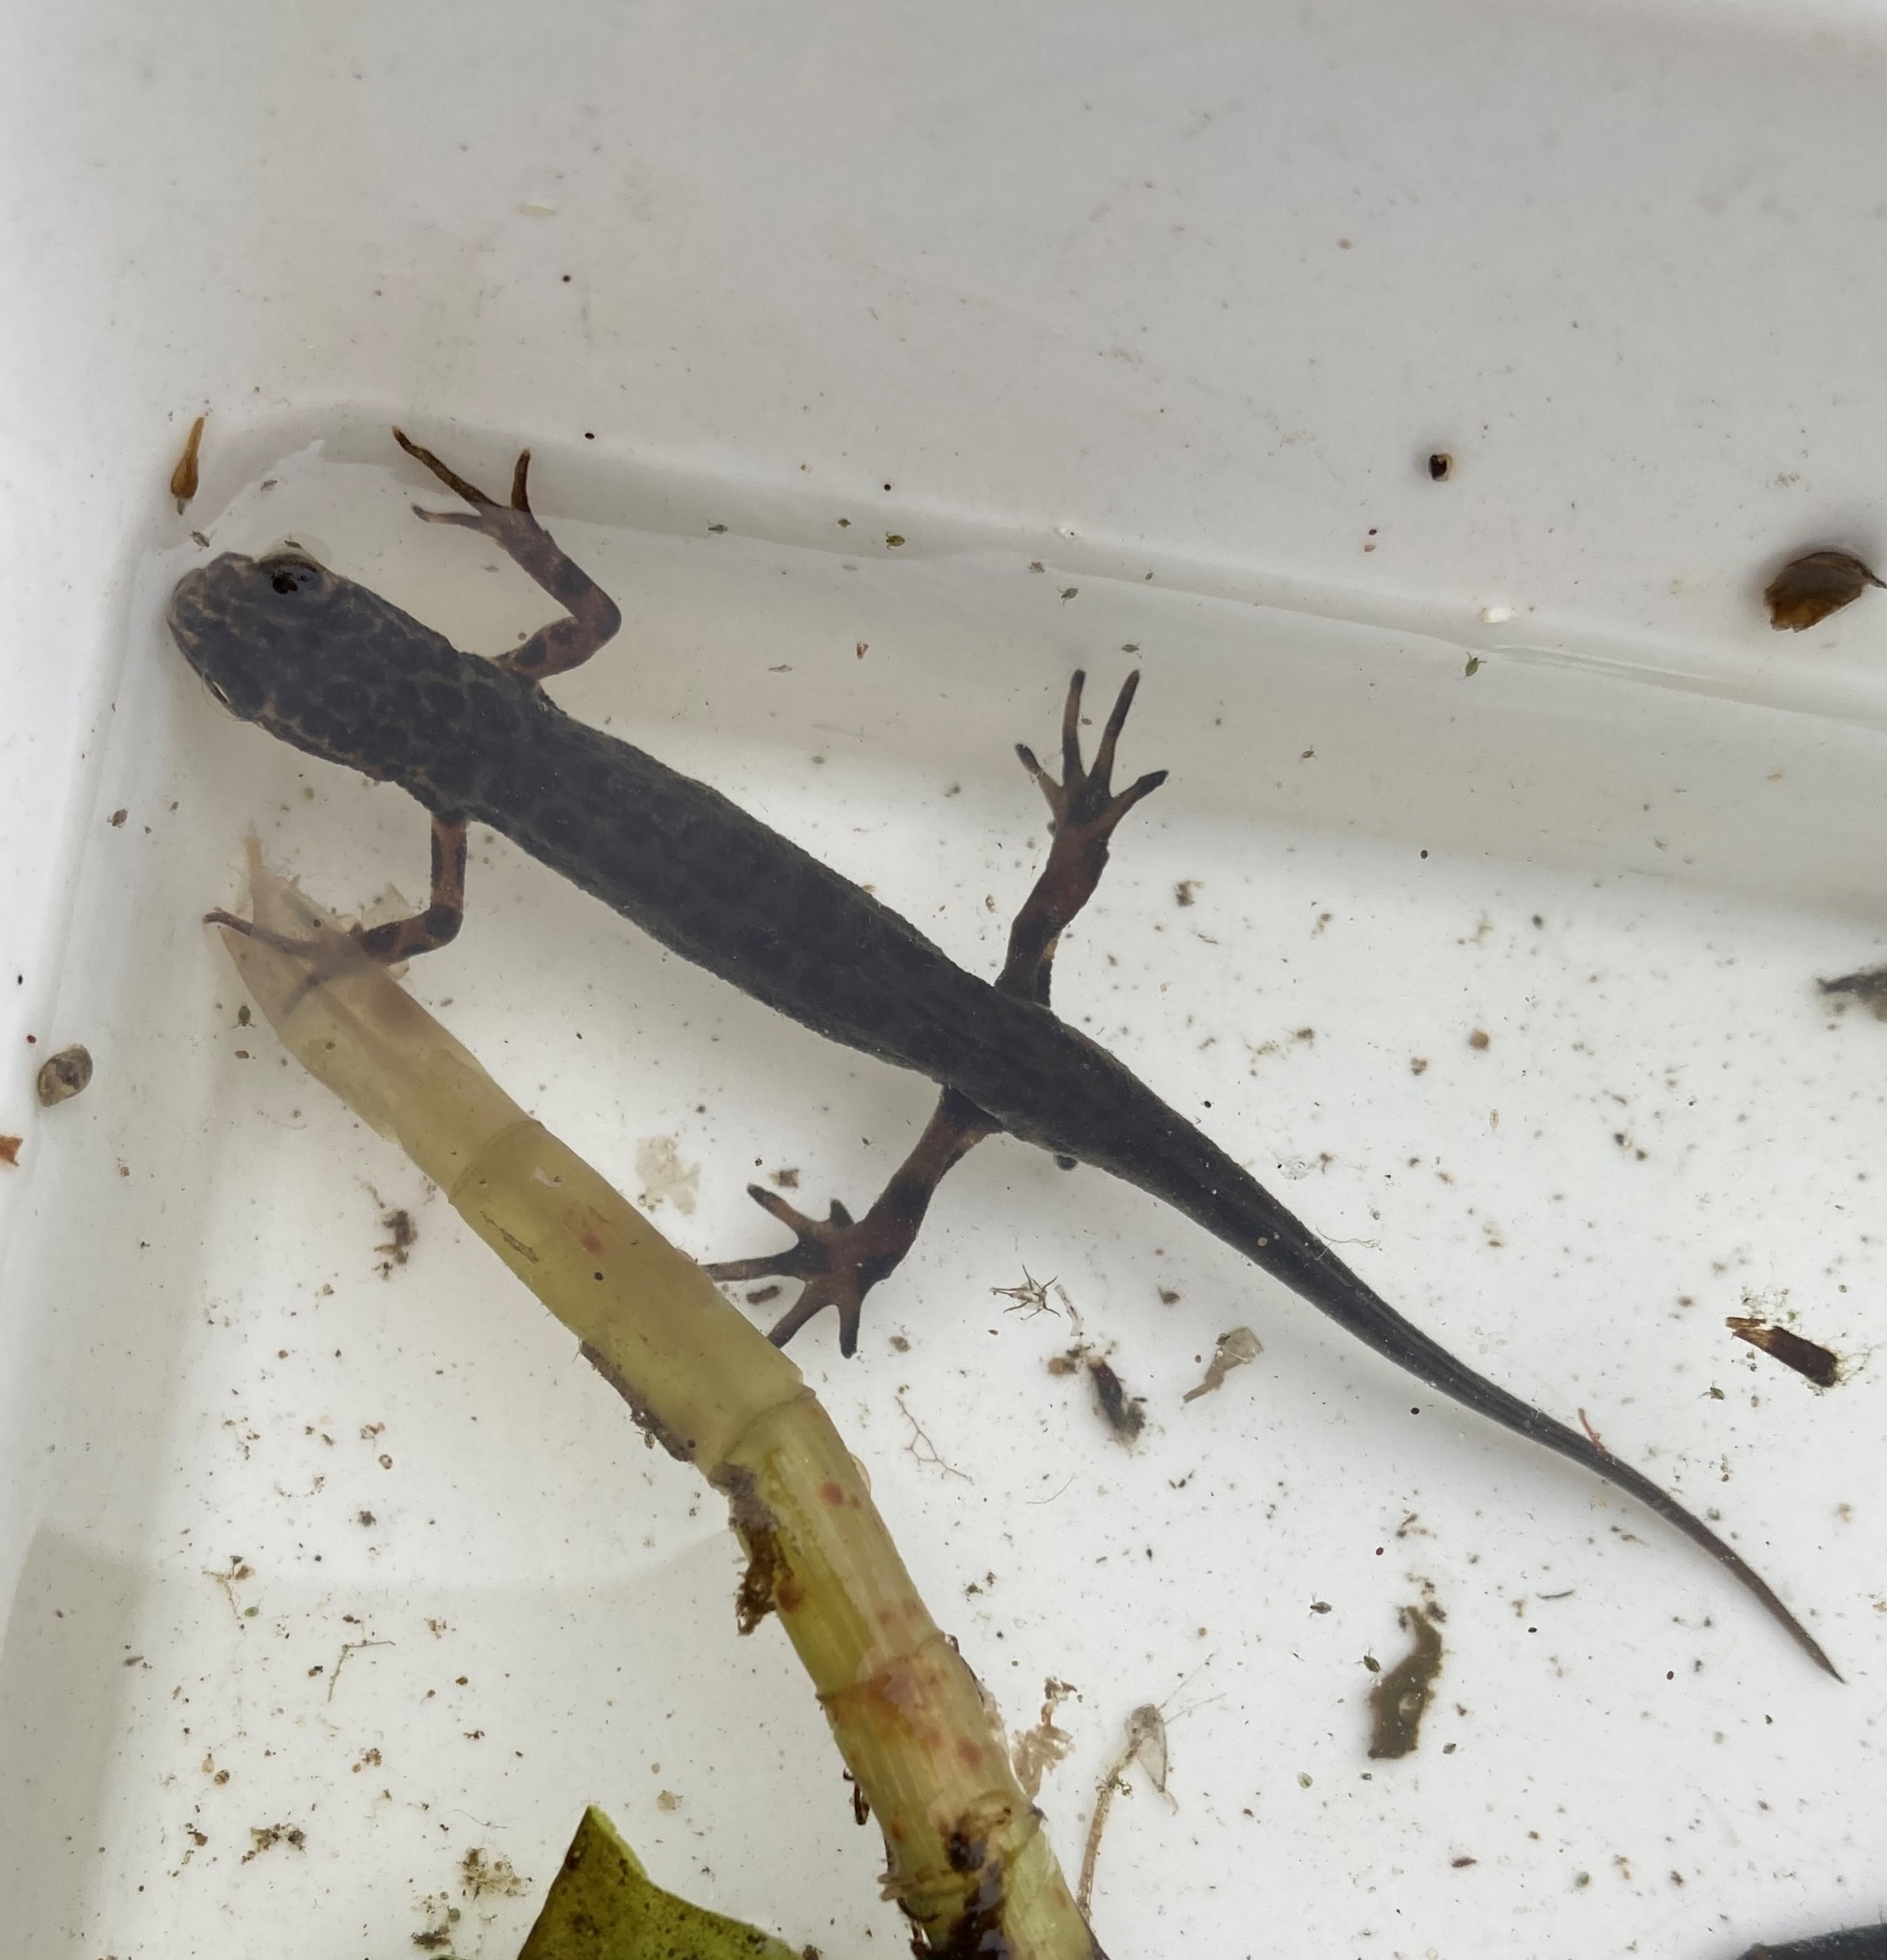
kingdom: Animalia
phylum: Chordata
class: Amphibia
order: Caudata
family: Salamandridae
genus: Lissotriton
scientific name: Lissotriton vulgaris
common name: Lille vandsalamander
